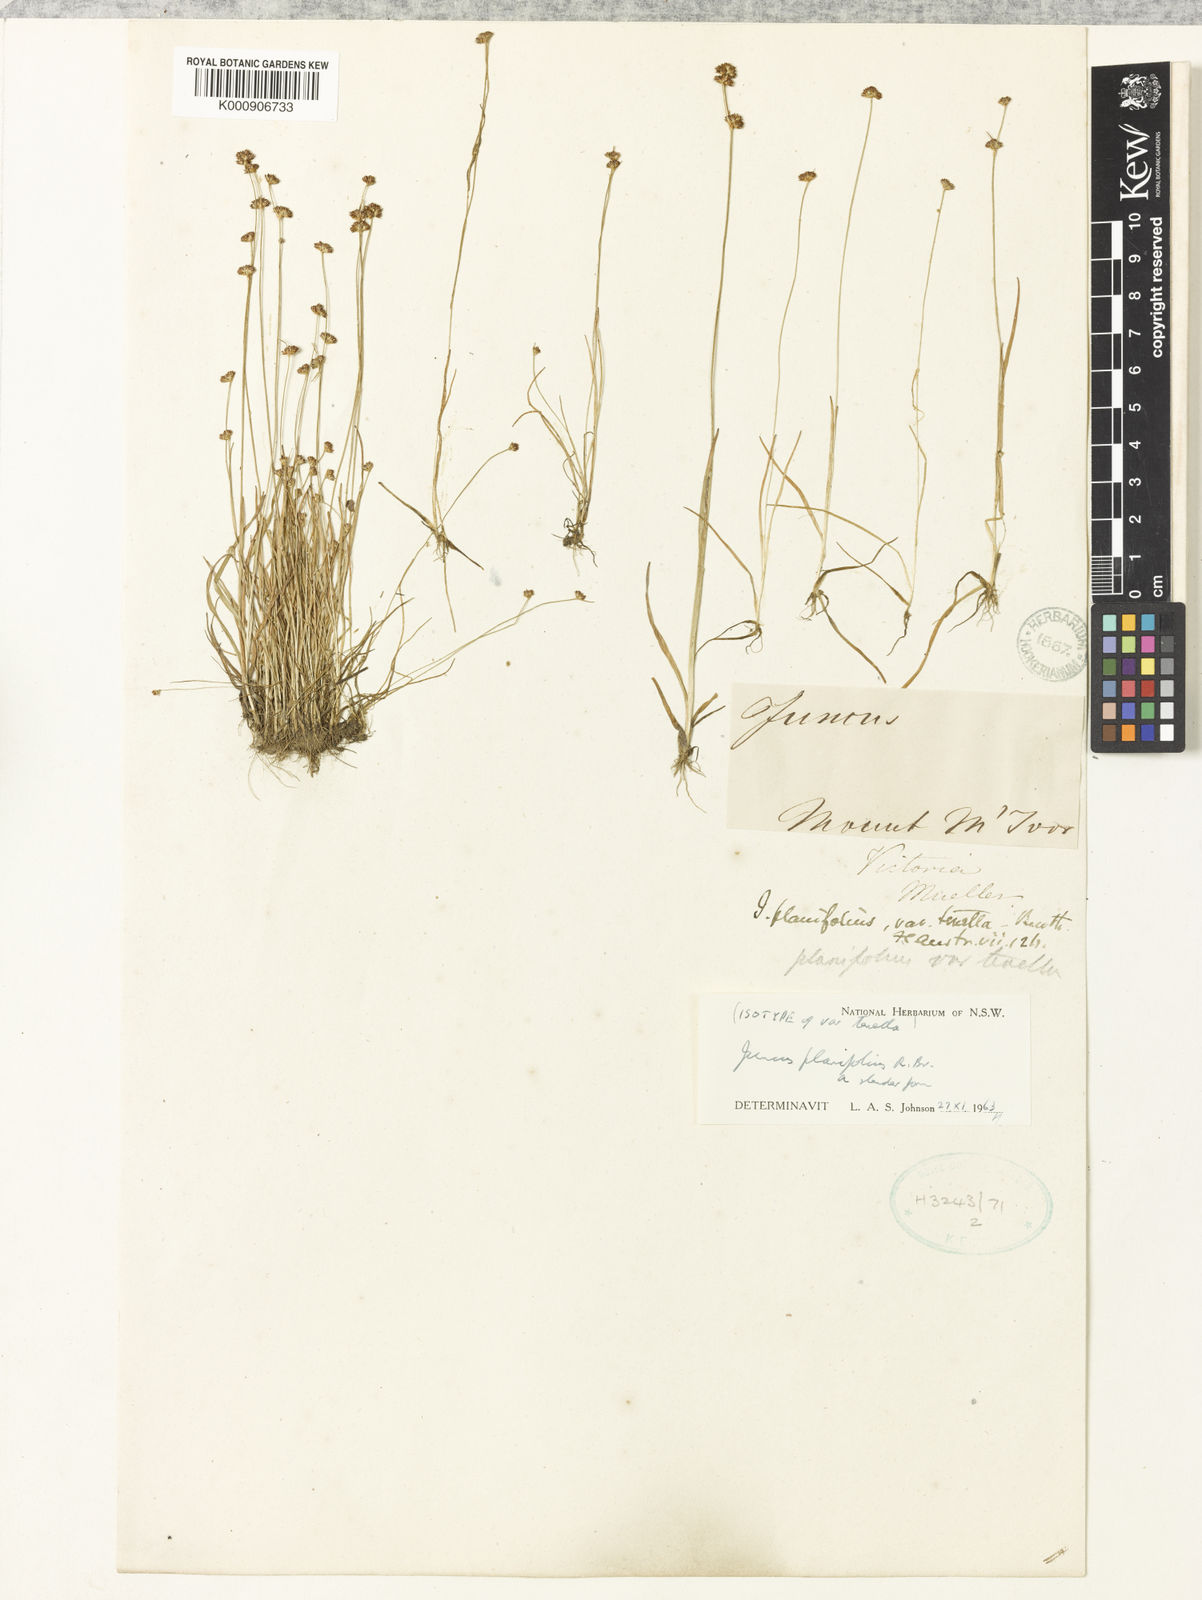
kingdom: Plantae
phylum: Tracheophyta
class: Liliopsida
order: Poales
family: Juncaceae
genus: Juncus
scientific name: Juncus planifolius
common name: Broadleaf rush
